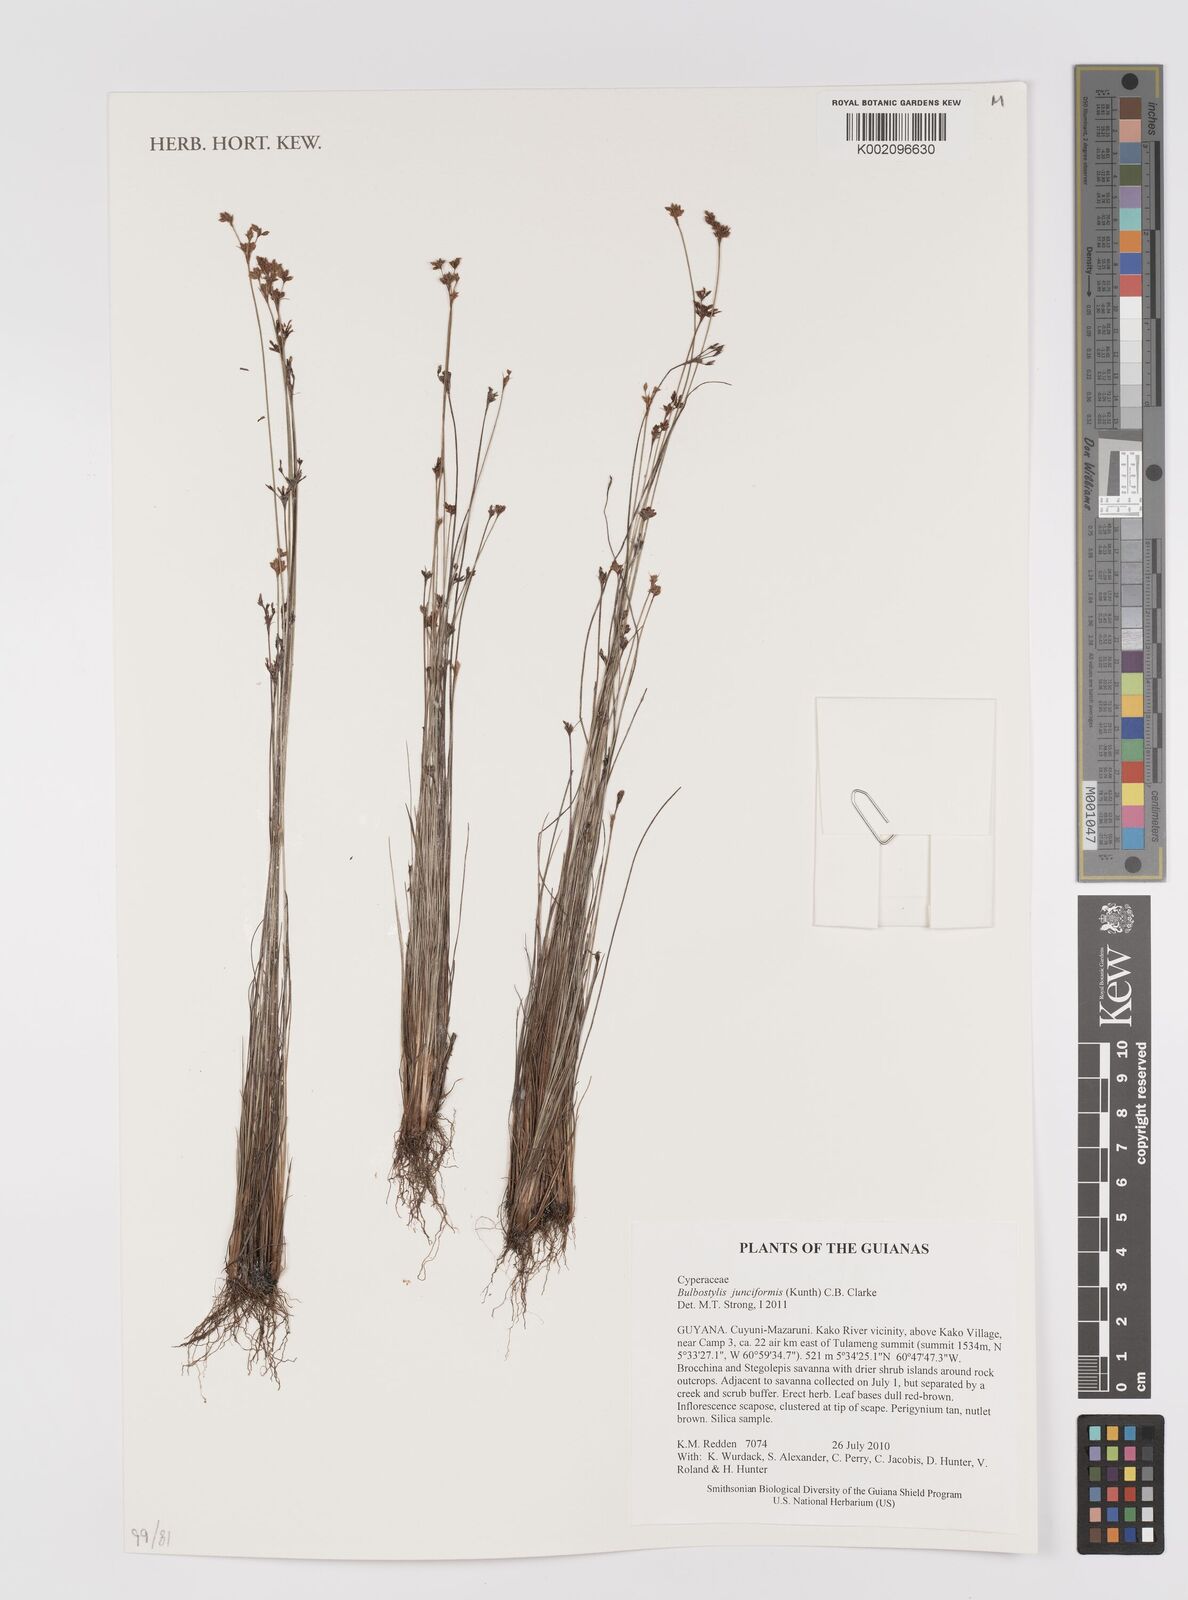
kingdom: Plantae
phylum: Tracheophyta
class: Liliopsida
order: Poales
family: Cyperaceae
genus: Bulbostylis
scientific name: Bulbostylis junciformis
